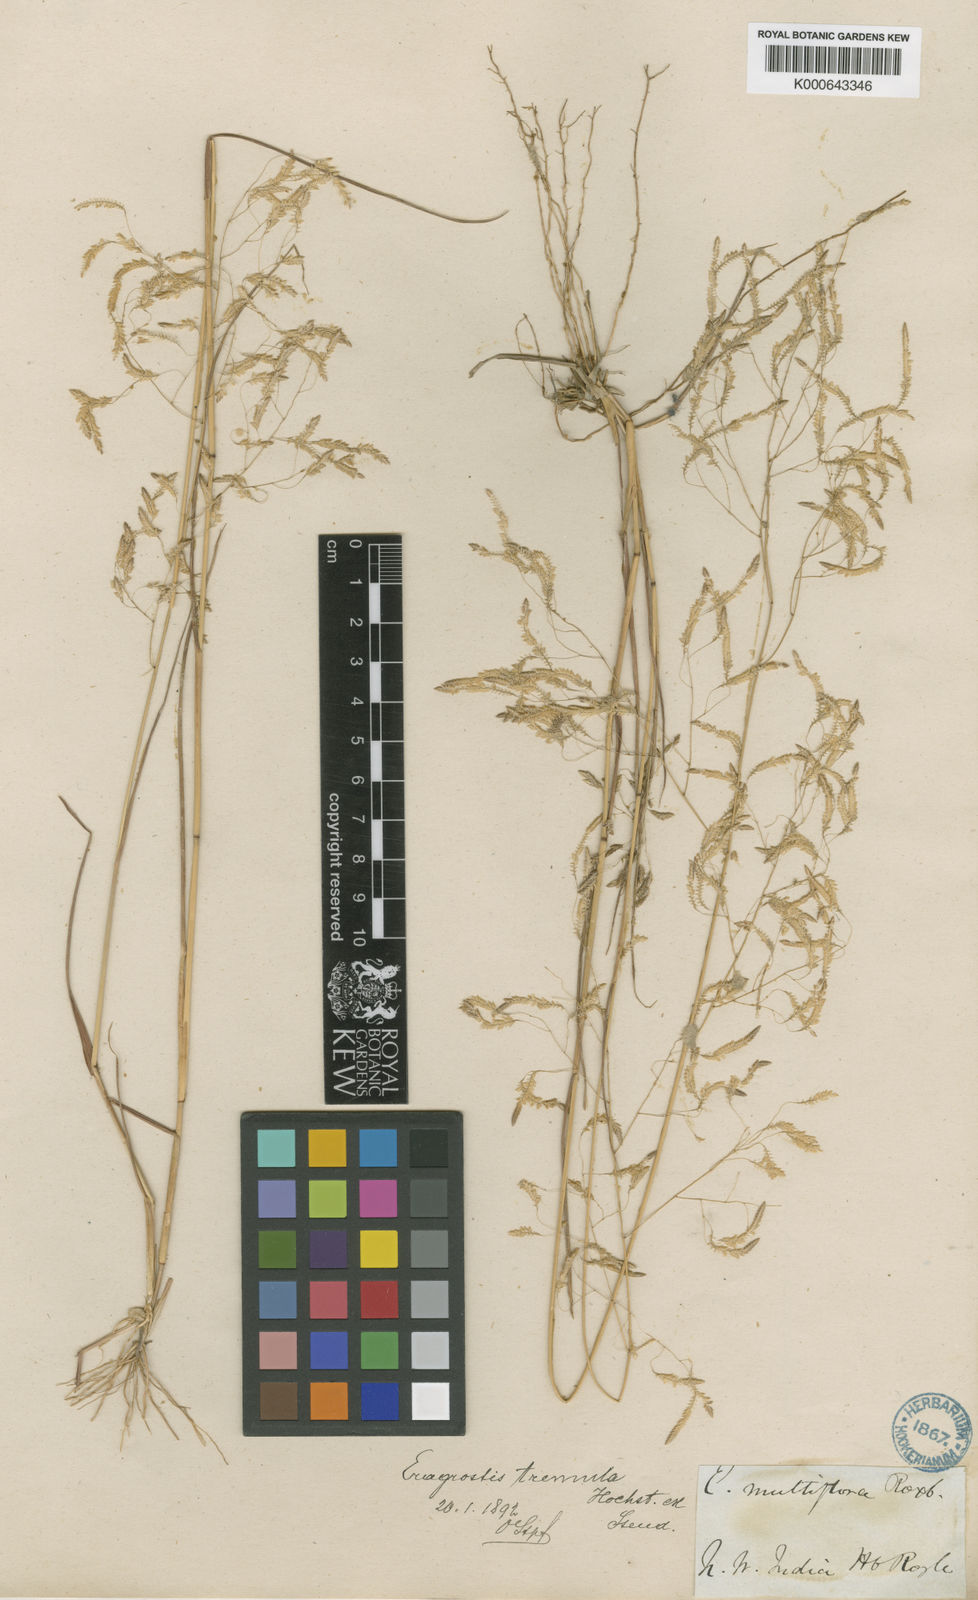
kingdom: Plantae
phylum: Tracheophyta
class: Liliopsida
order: Poales
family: Poaceae
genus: Eragrostis
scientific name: Eragrostis tremula
